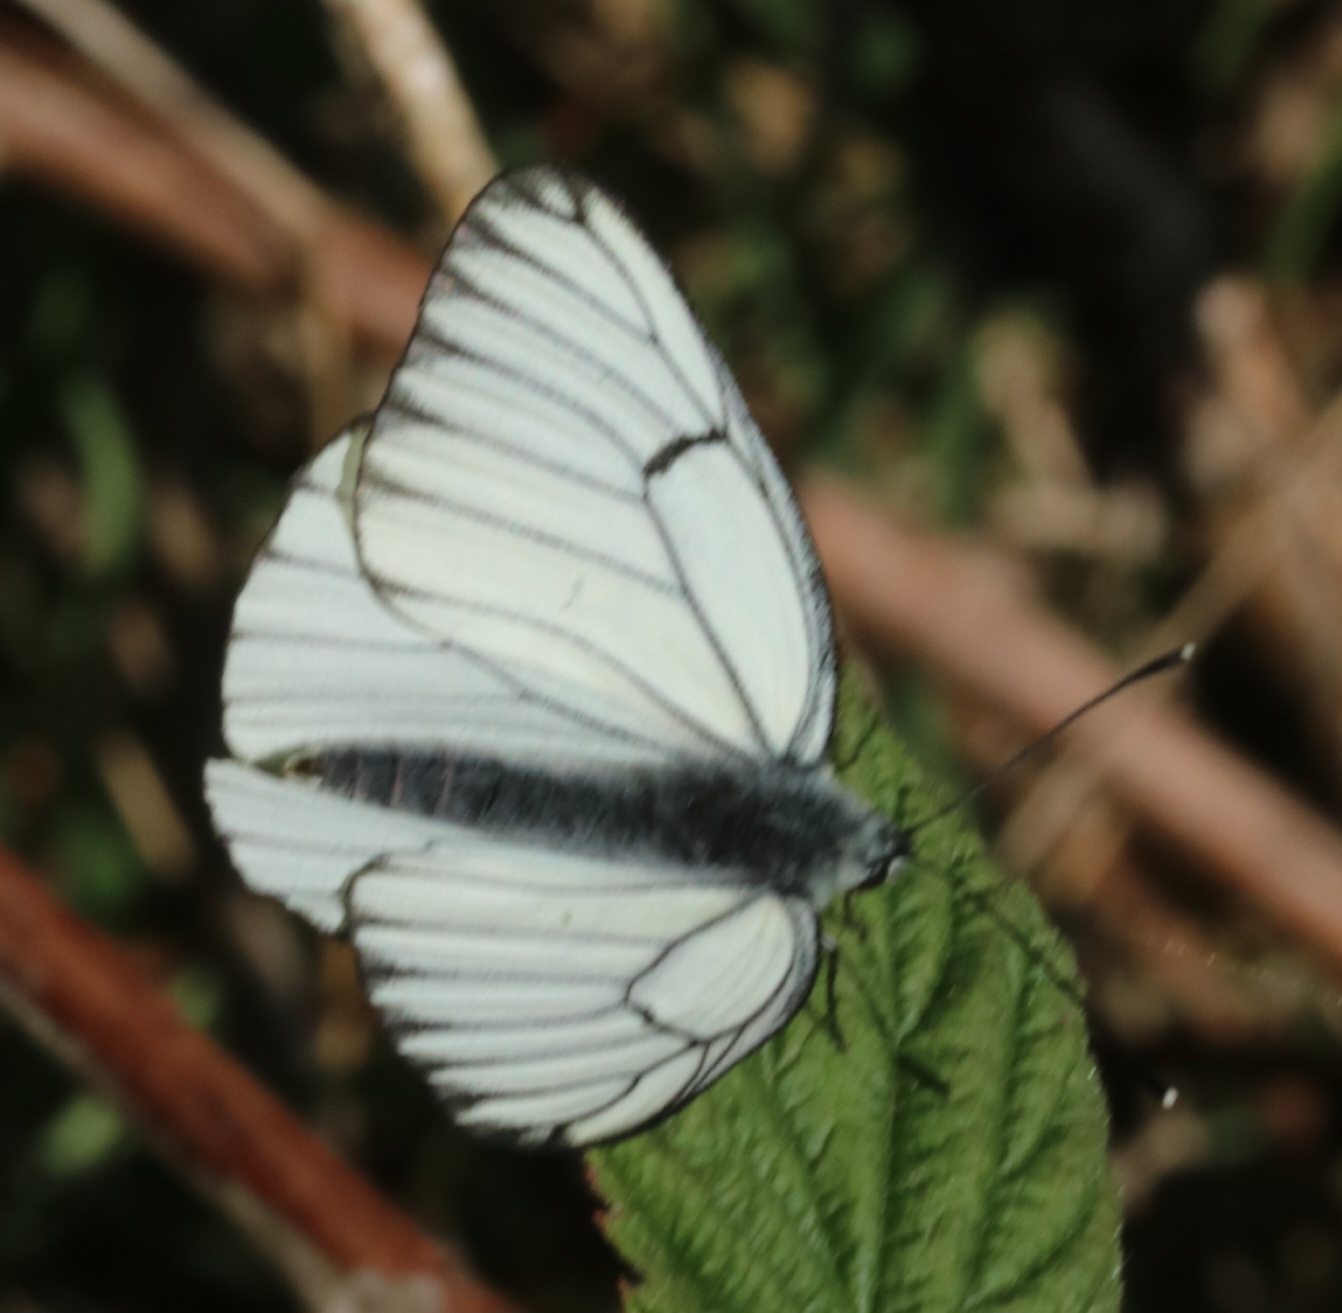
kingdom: Animalia
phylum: Arthropoda
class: Insecta
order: Lepidoptera
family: Pieridae
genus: Aporia
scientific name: Aporia crataegi
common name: Sortåret hvidvinge
